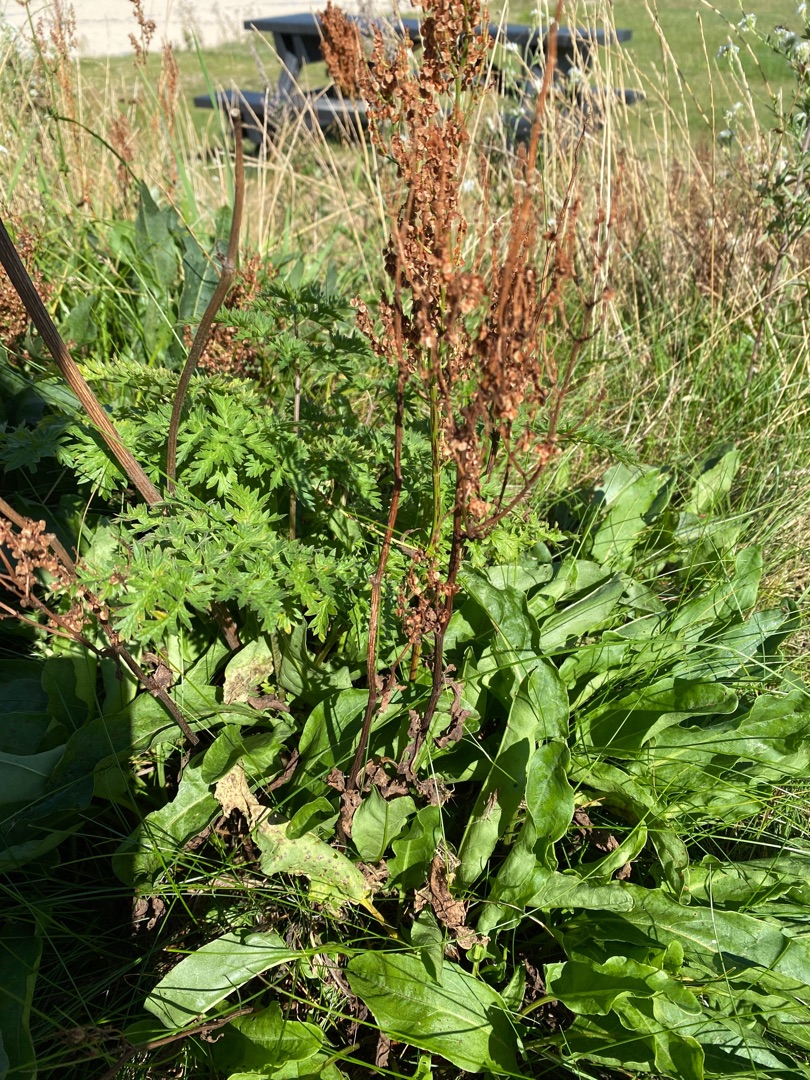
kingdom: Plantae
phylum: Tracheophyta
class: Magnoliopsida
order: Caryophyllales
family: Polygonaceae
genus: Rumex
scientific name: Rumex thyrsiflorus
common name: Dusk-syre
